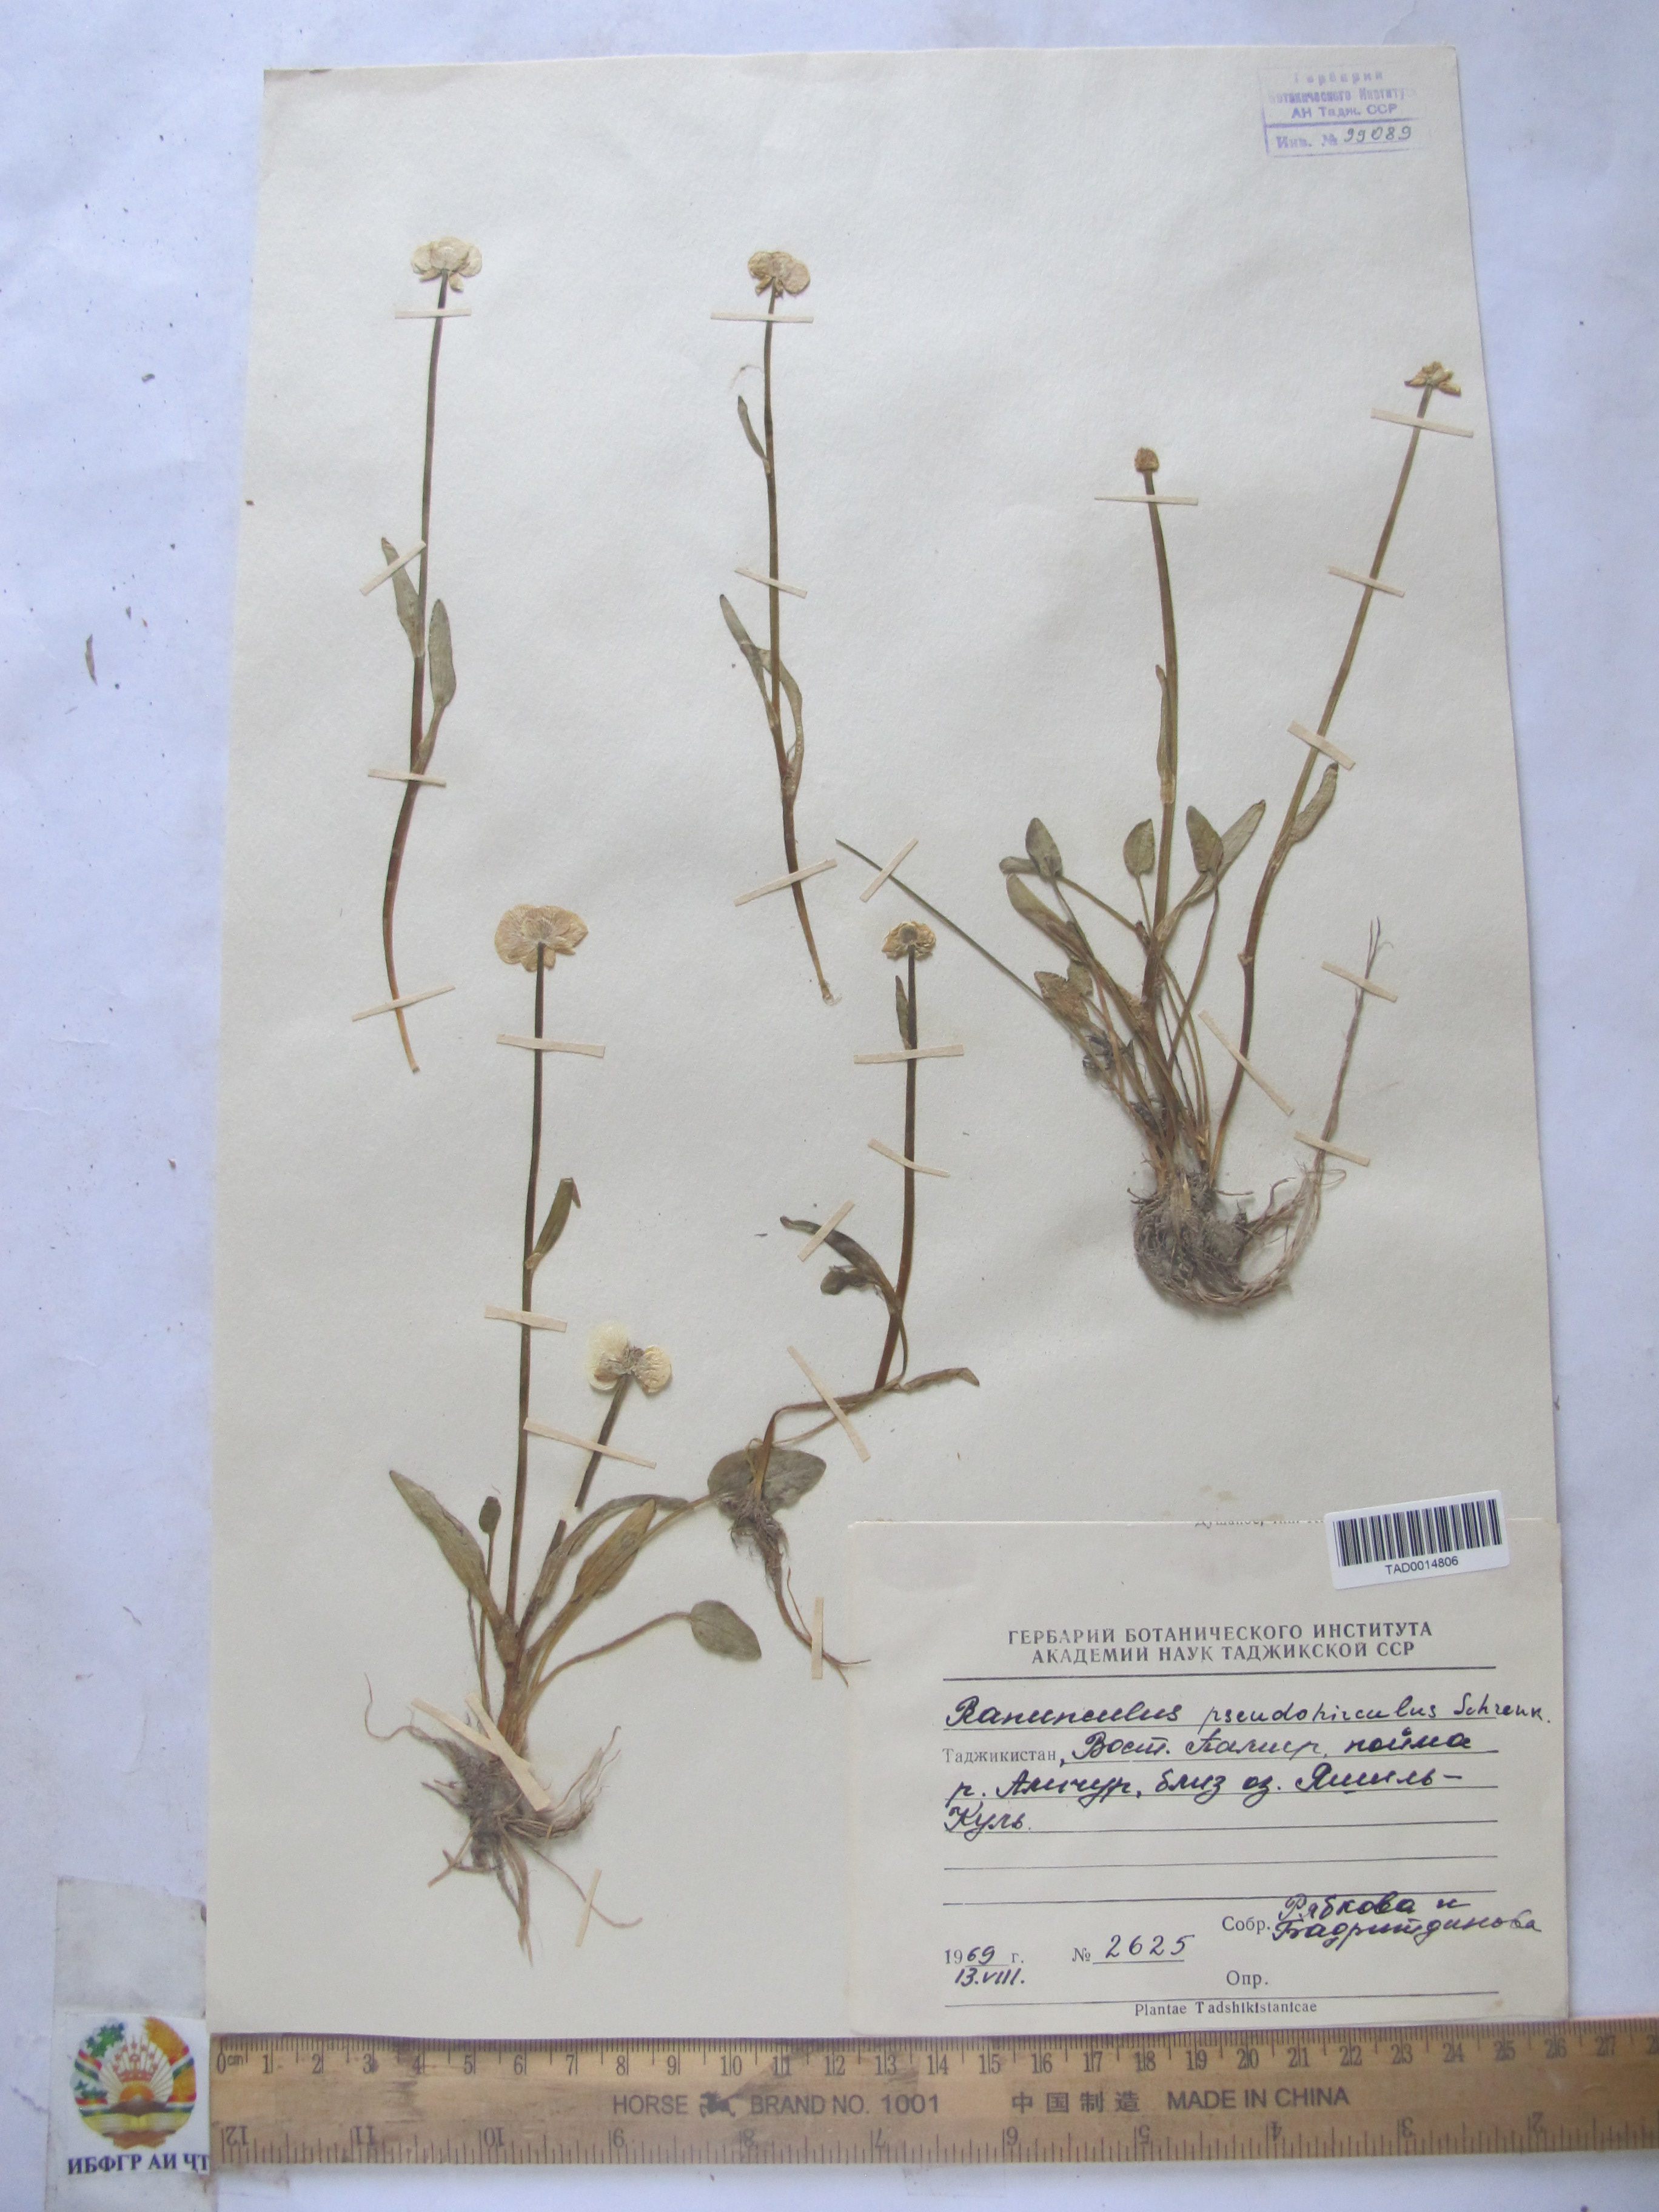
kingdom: Plantae
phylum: Tracheophyta
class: Magnoliopsida
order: Ranunculales
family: Ranunculaceae
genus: Ranunculus
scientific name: Ranunculus pseudohirculus
